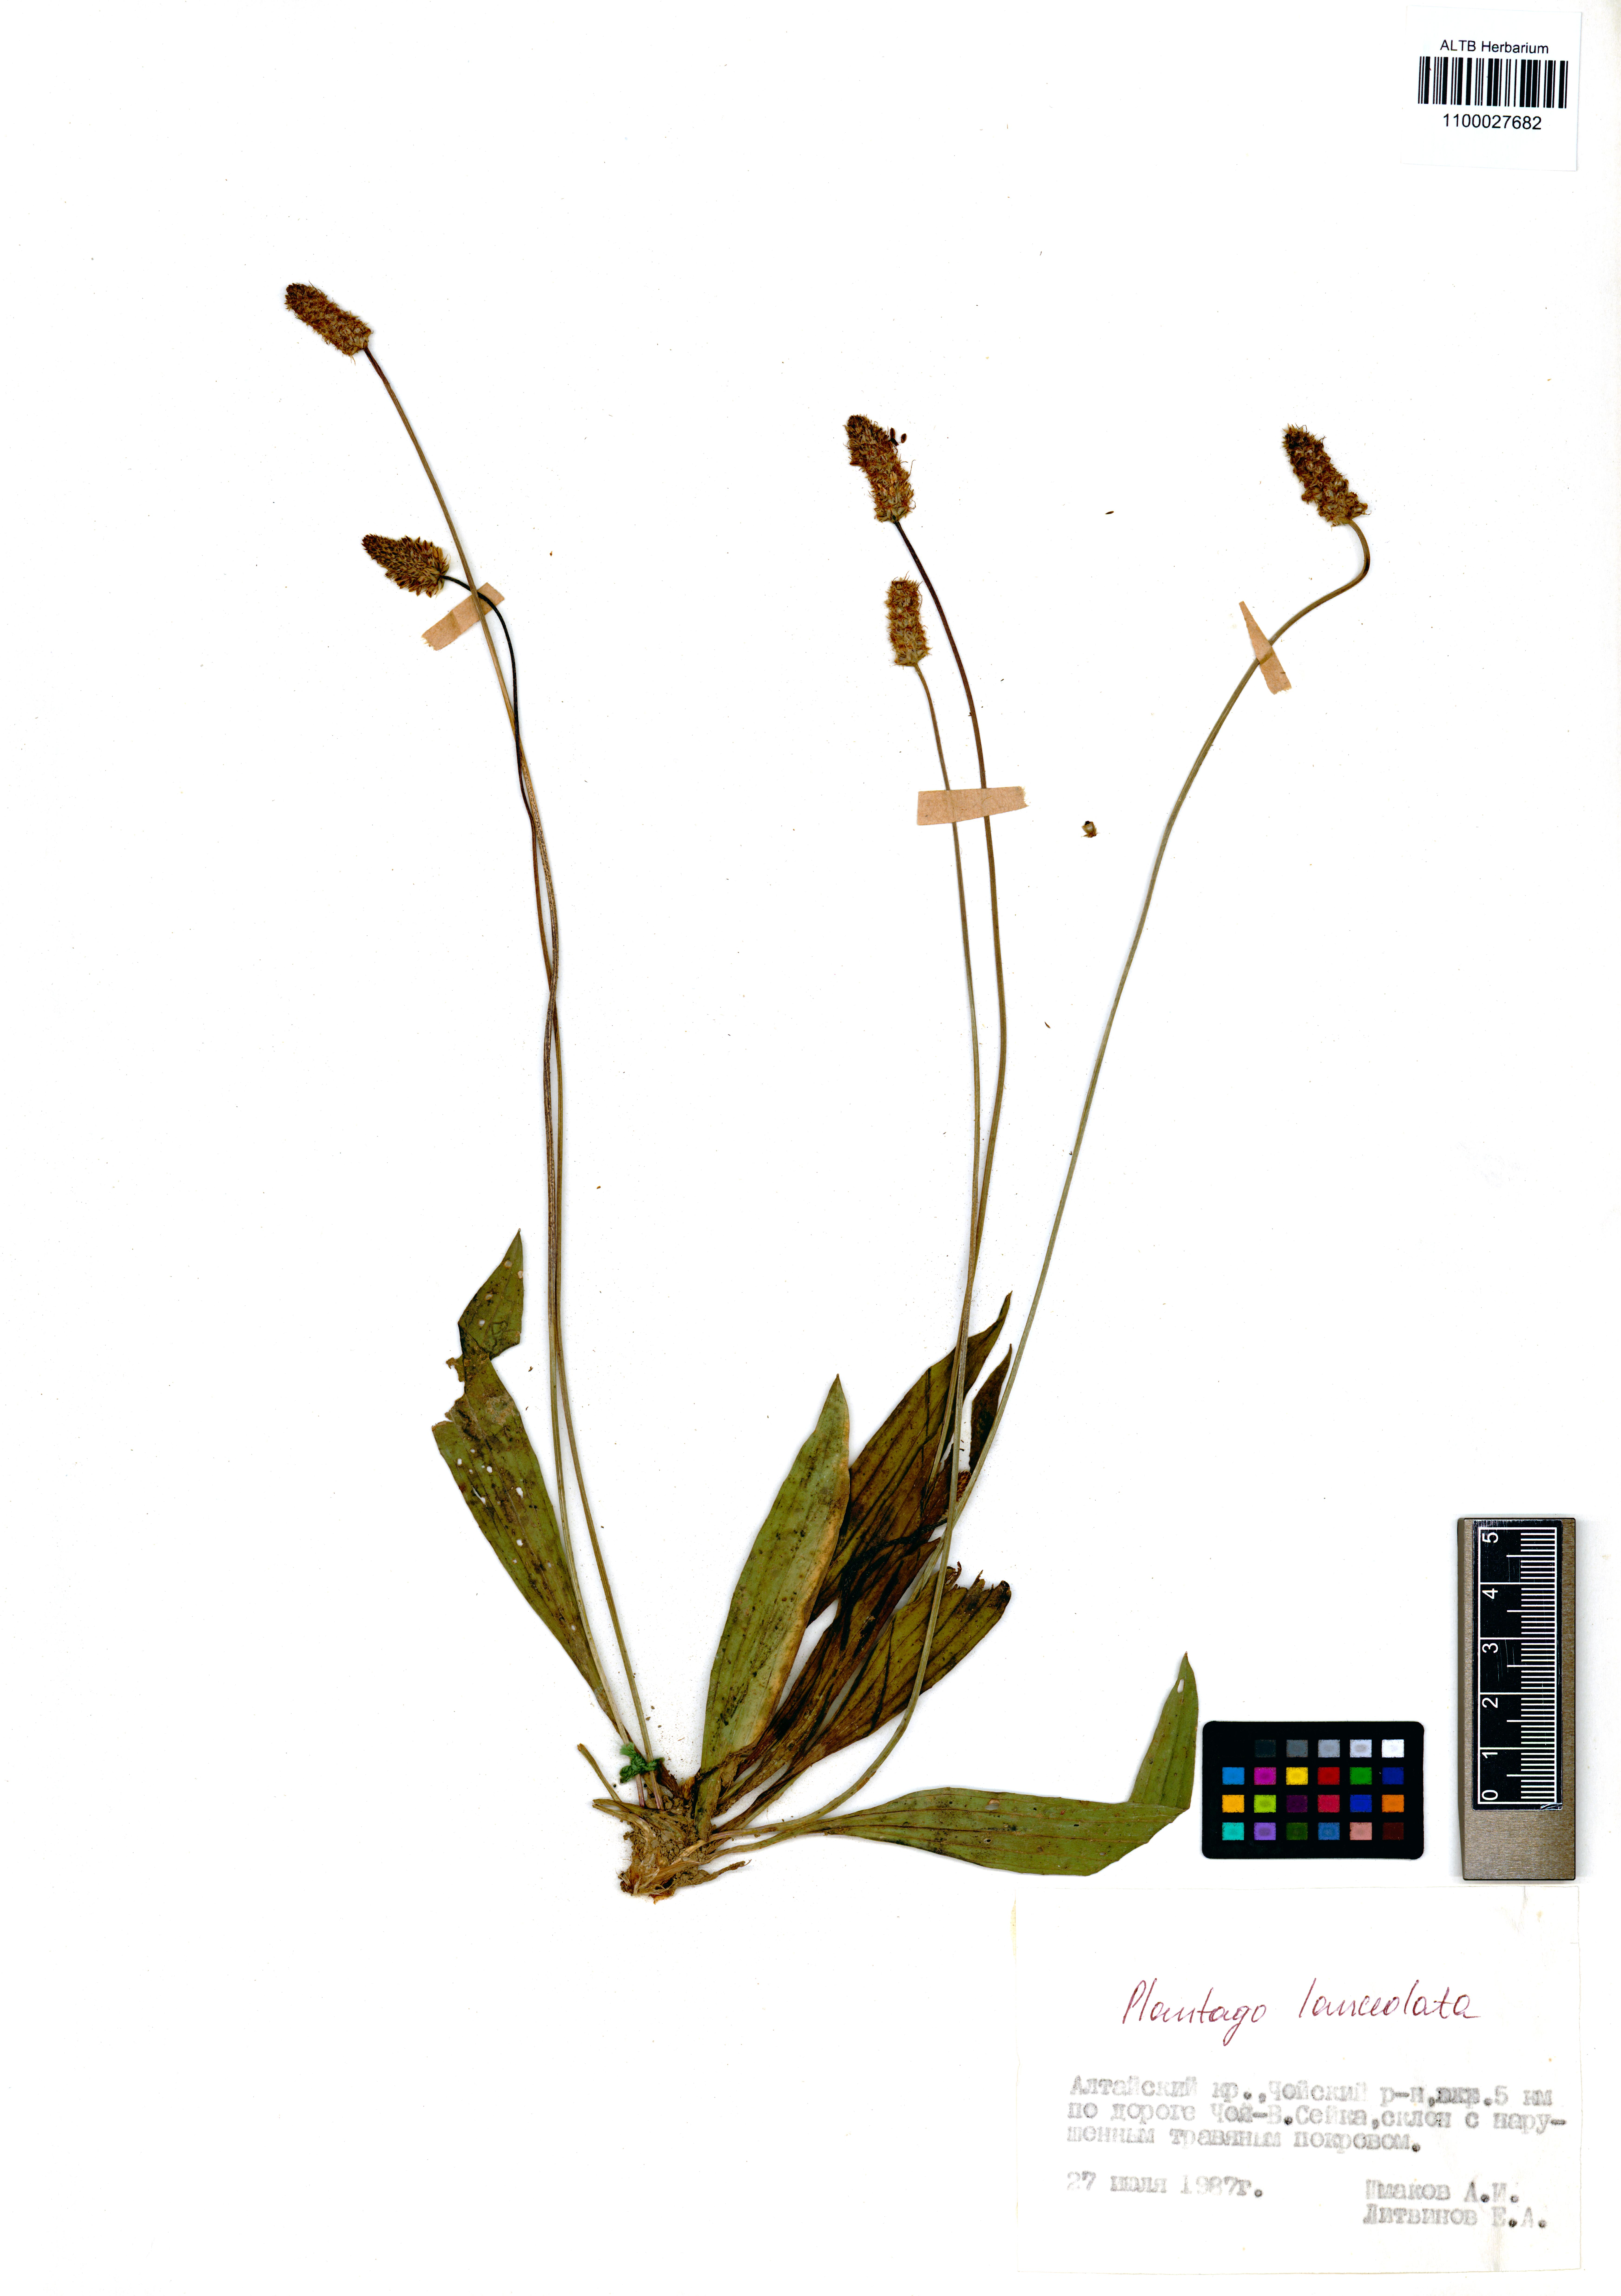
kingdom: Plantae
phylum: Tracheophyta
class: Magnoliopsida
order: Lamiales
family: Plantaginaceae
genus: Plantago
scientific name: Plantago lanceolata
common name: Ribwort plantain
